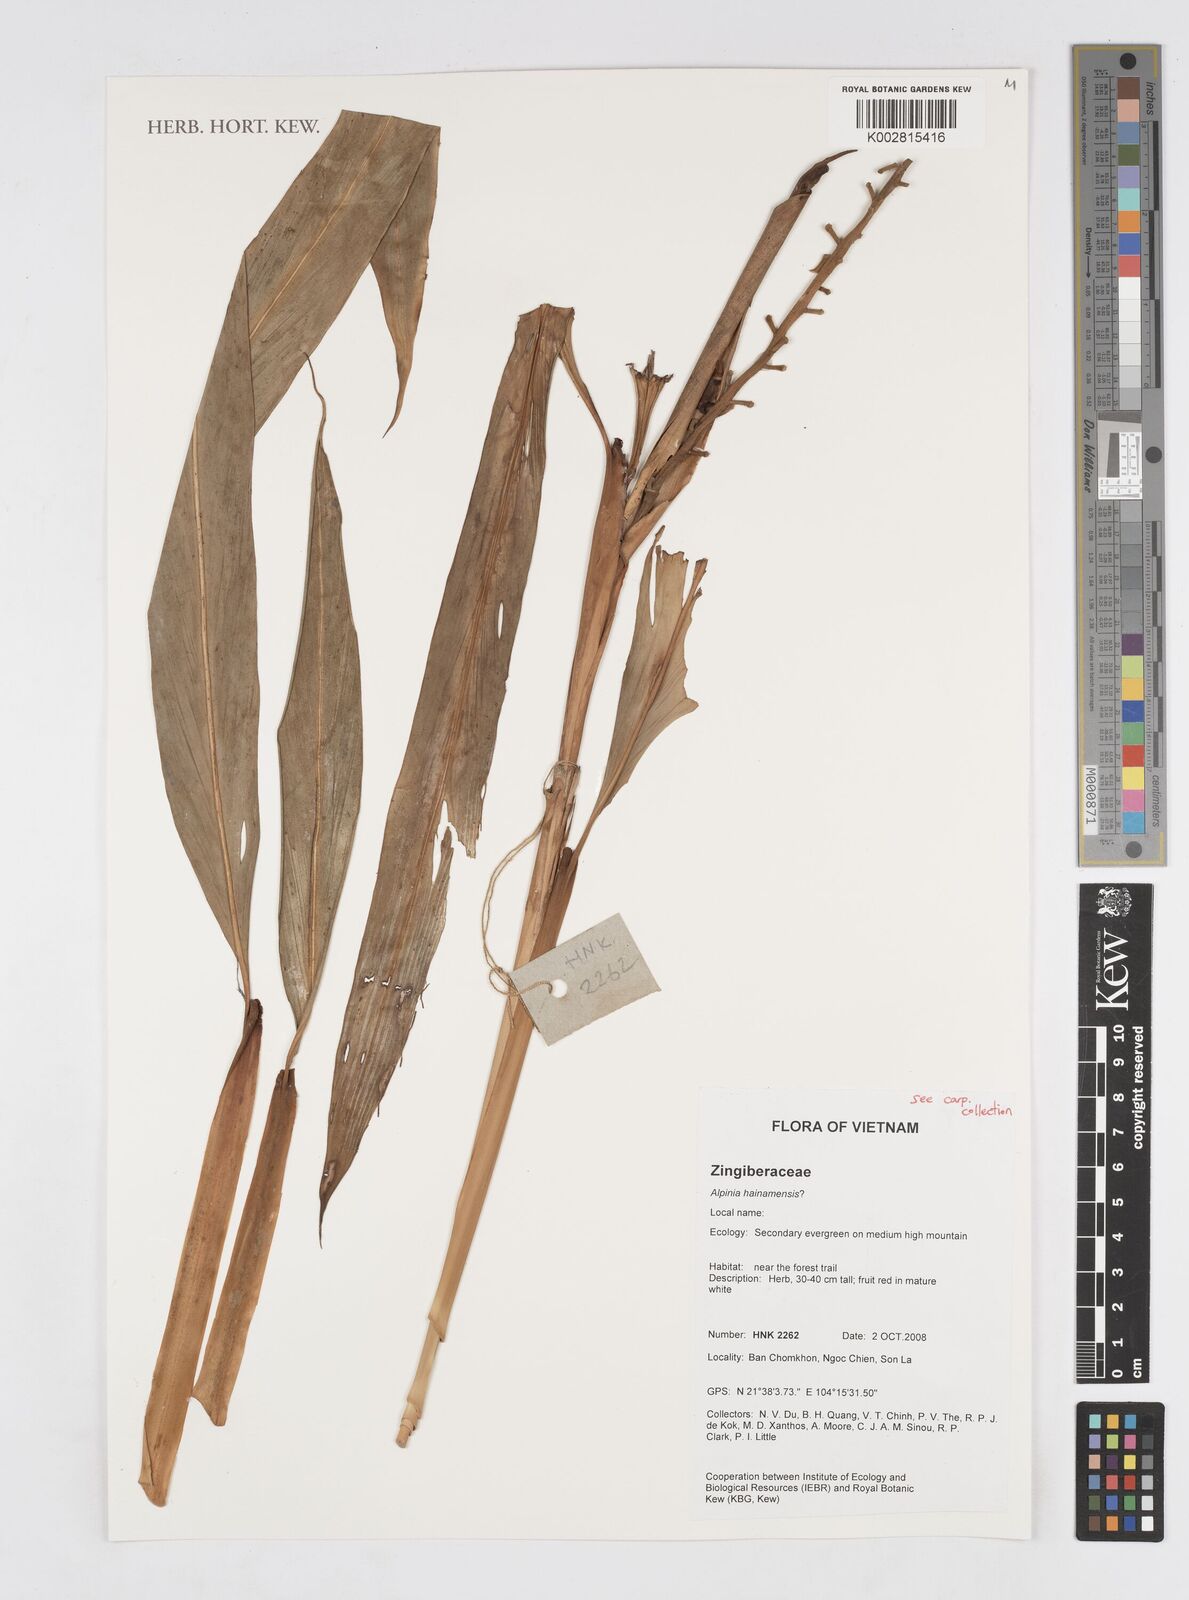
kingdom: Plantae
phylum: Tracheophyta
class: Liliopsida
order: Zingiberales
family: Zingiberaceae
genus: Alpinia
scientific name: Alpinia
